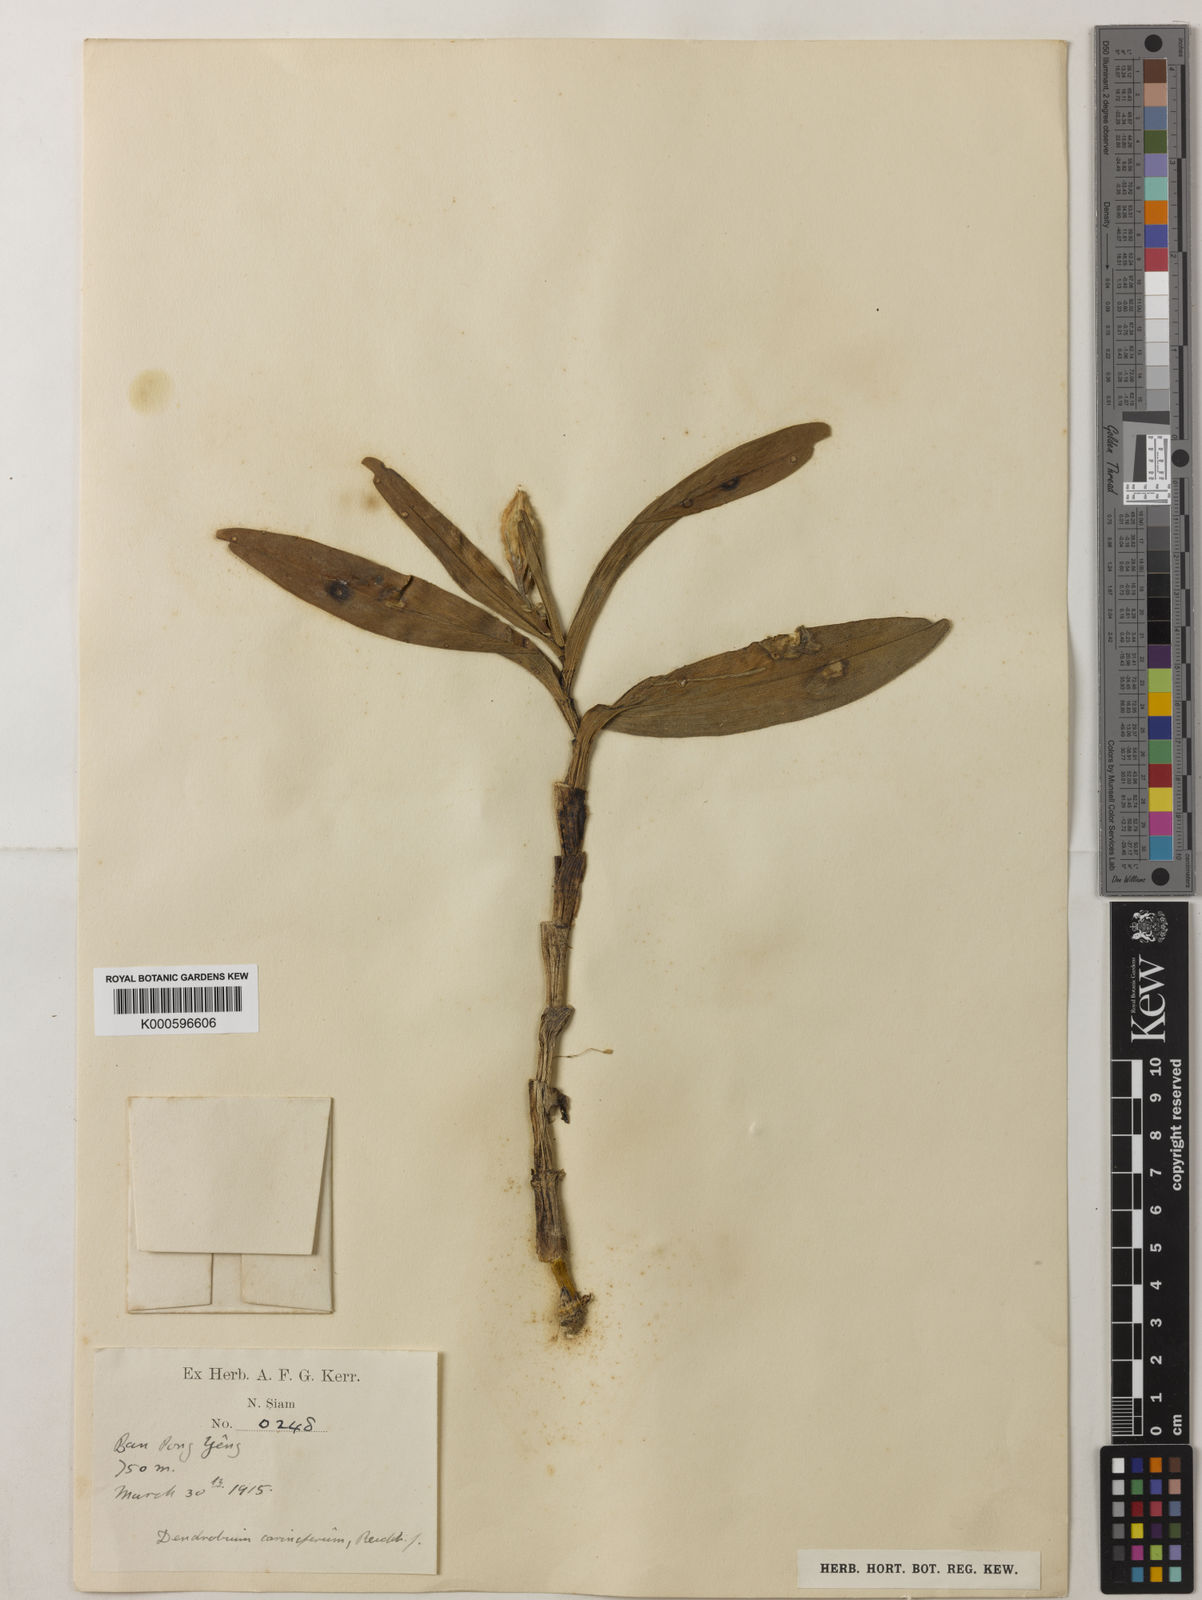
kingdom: Plantae
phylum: Tracheophyta
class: Liliopsida
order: Asparagales
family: Orchidaceae
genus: Dendrobium
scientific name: Dendrobium cariniferum
